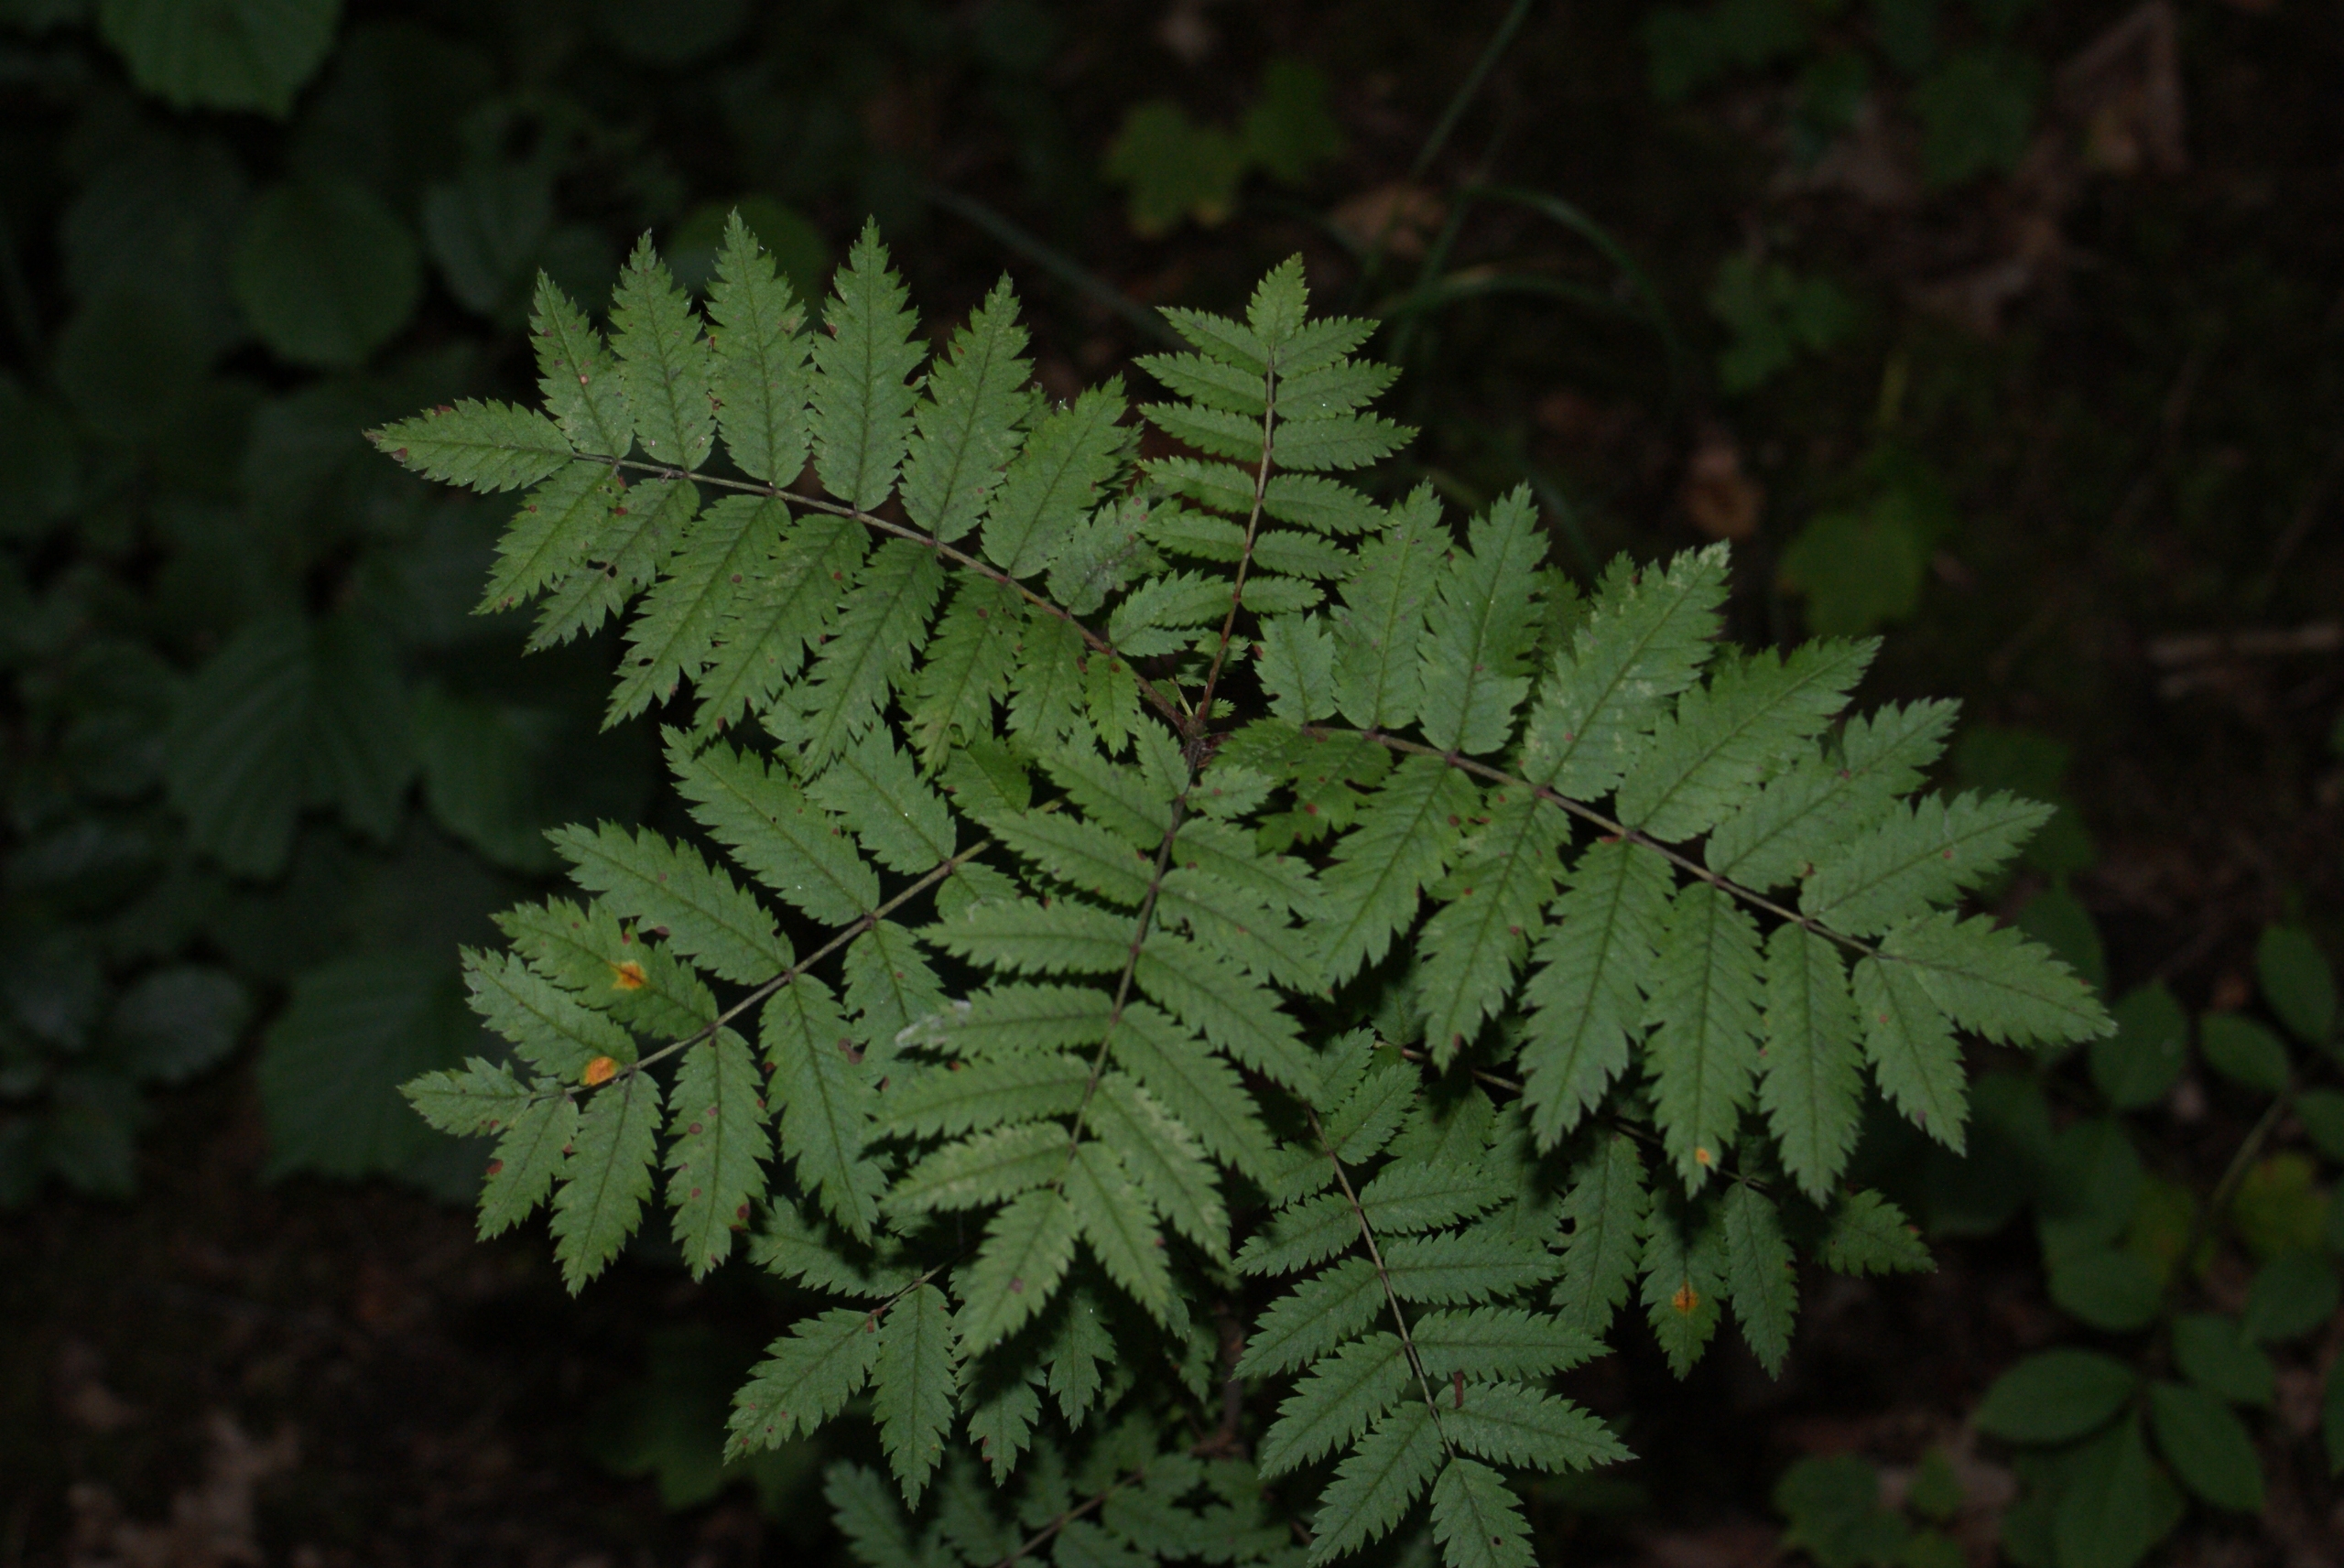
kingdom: Plantae
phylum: Tracheophyta
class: Magnoliopsida
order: Rosales
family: Rosaceae
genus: Sorbus
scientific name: Sorbus aucuparia
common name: Almindelig røn
